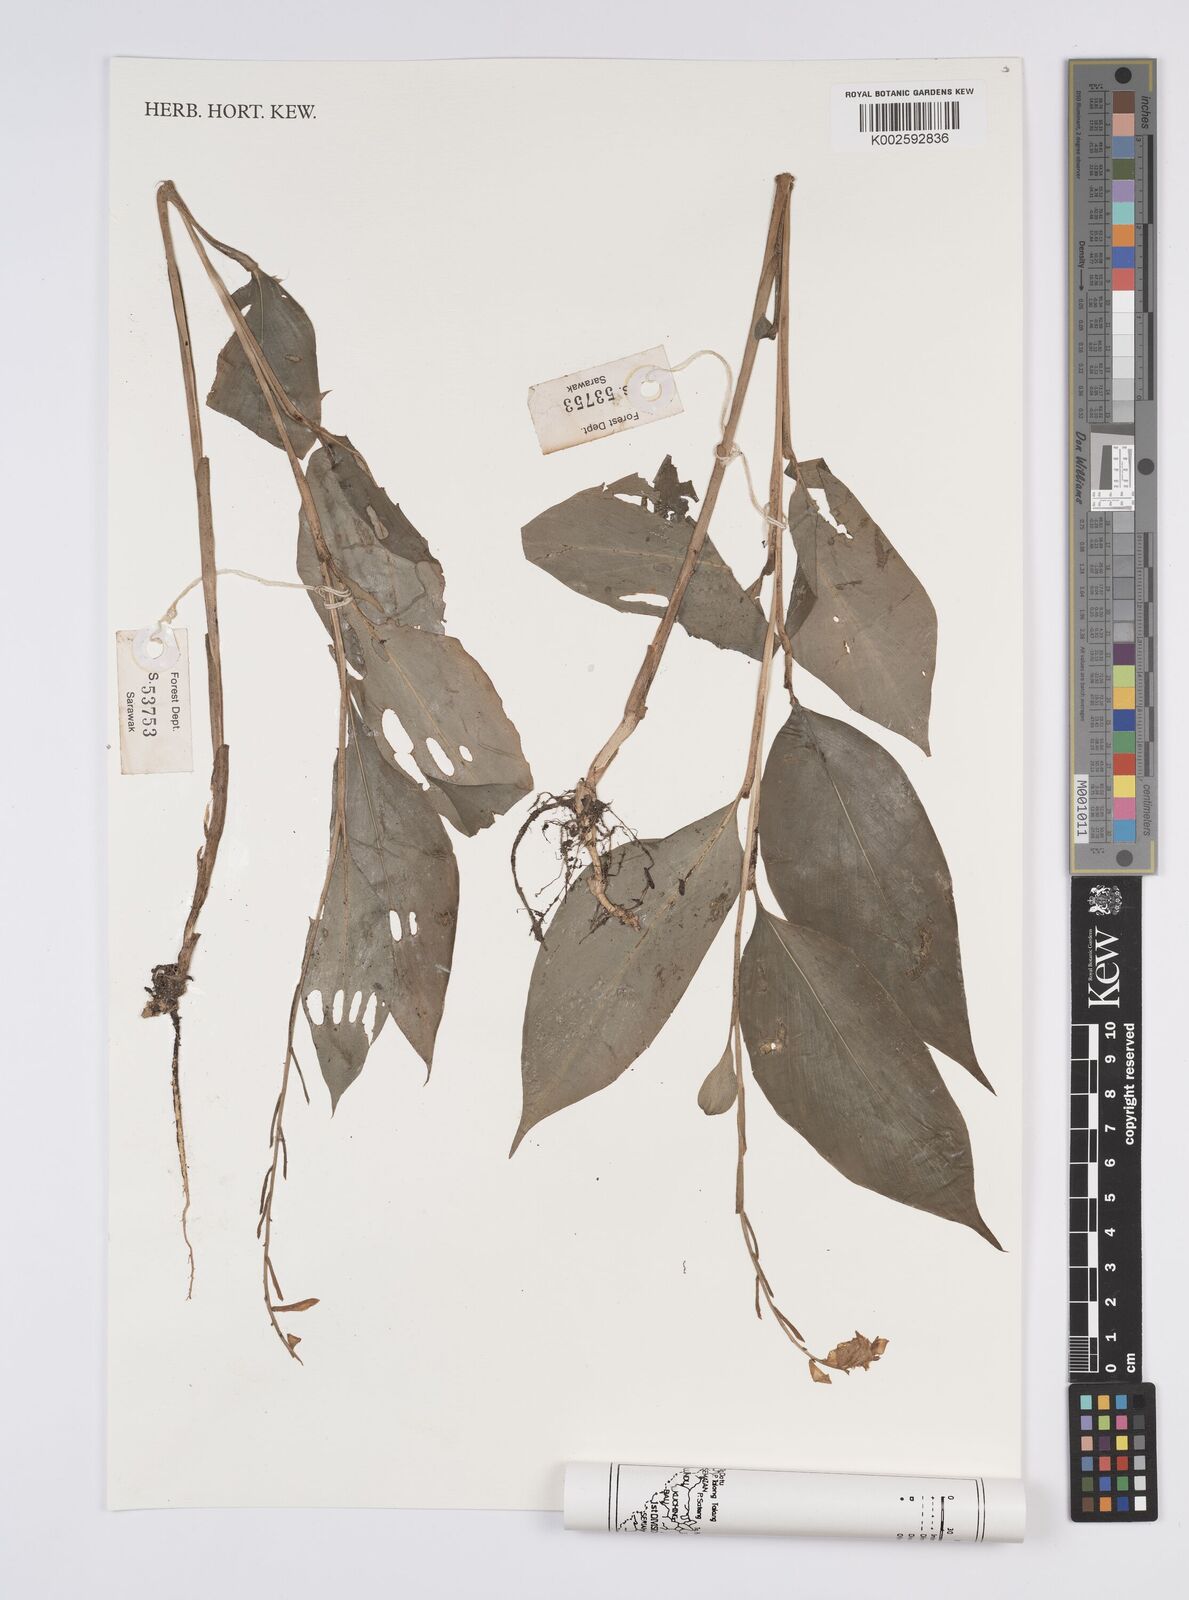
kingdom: Plantae
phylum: Tracheophyta
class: Liliopsida
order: Zingiberales
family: Zingiberaceae
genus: Globba
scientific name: Globba atrosanguinea
